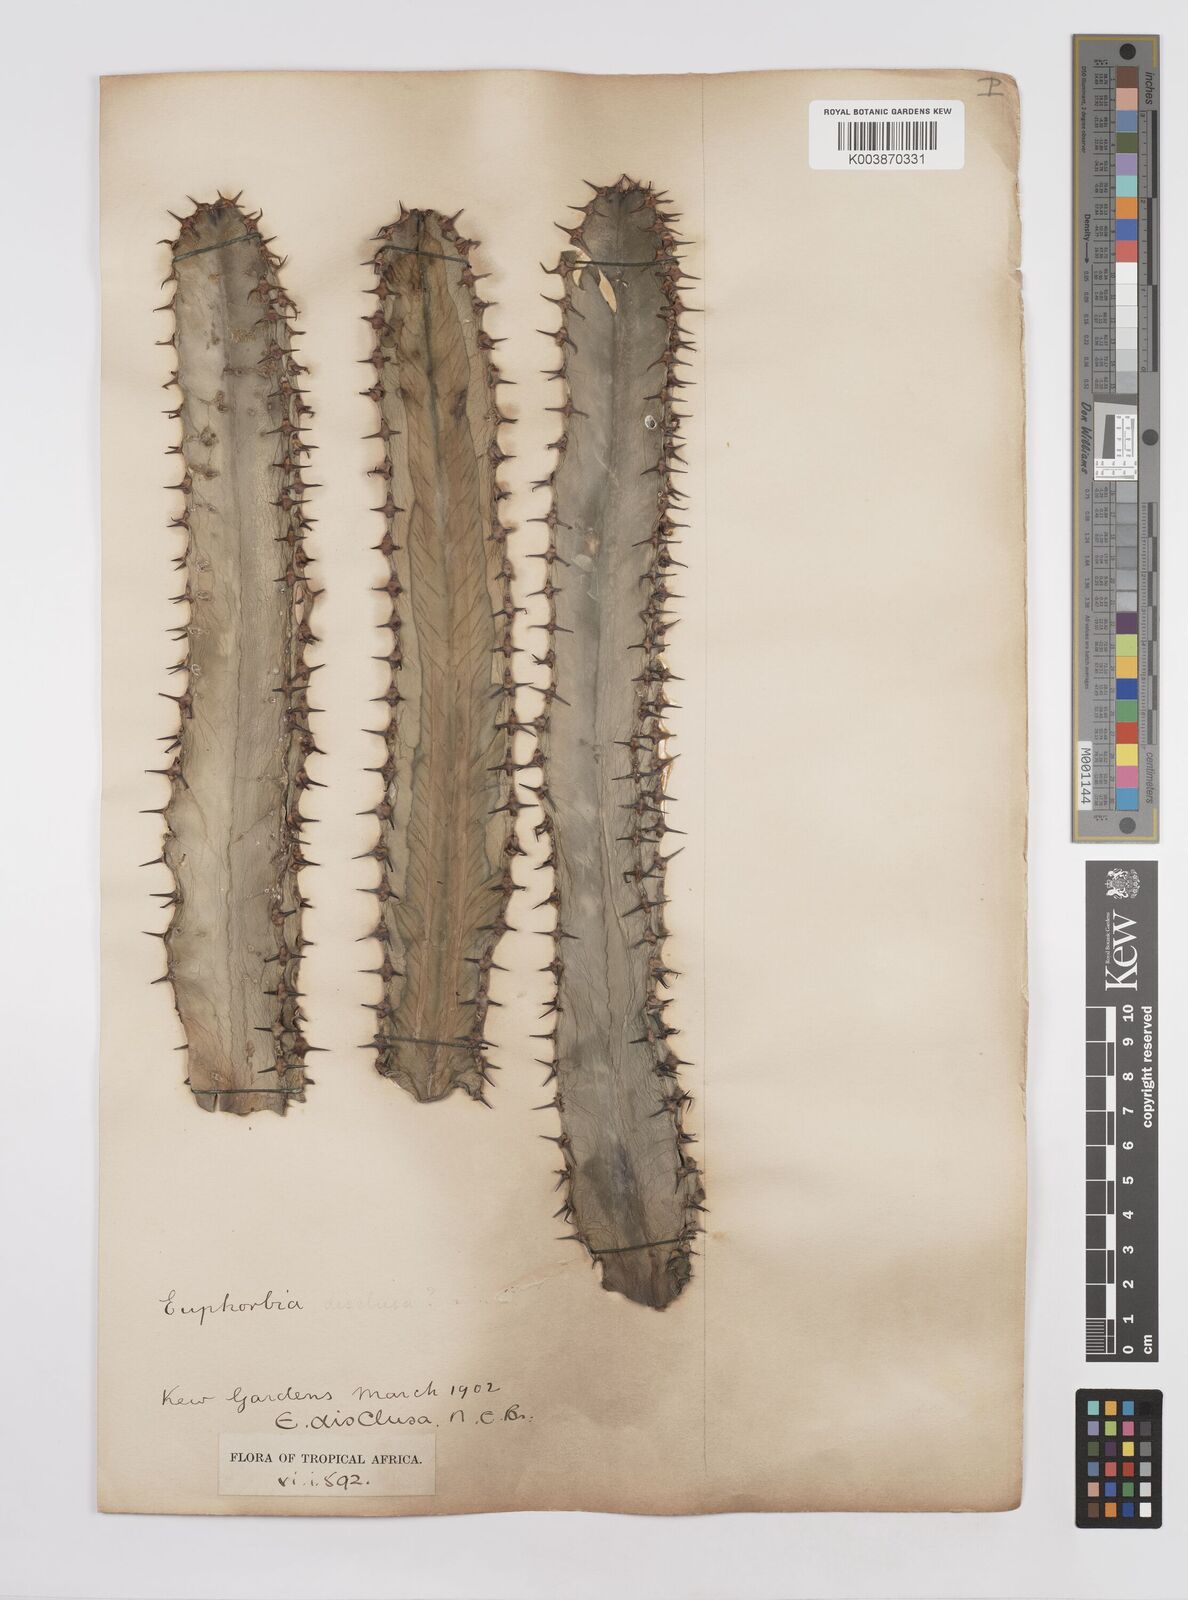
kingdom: Plantae
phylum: Tracheophyta
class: Magnoliopsida
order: Malpighiales
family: Euphorbiaceae
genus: Euphorbia
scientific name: Euphorbia abyssinica
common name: Abyssinian spurge
